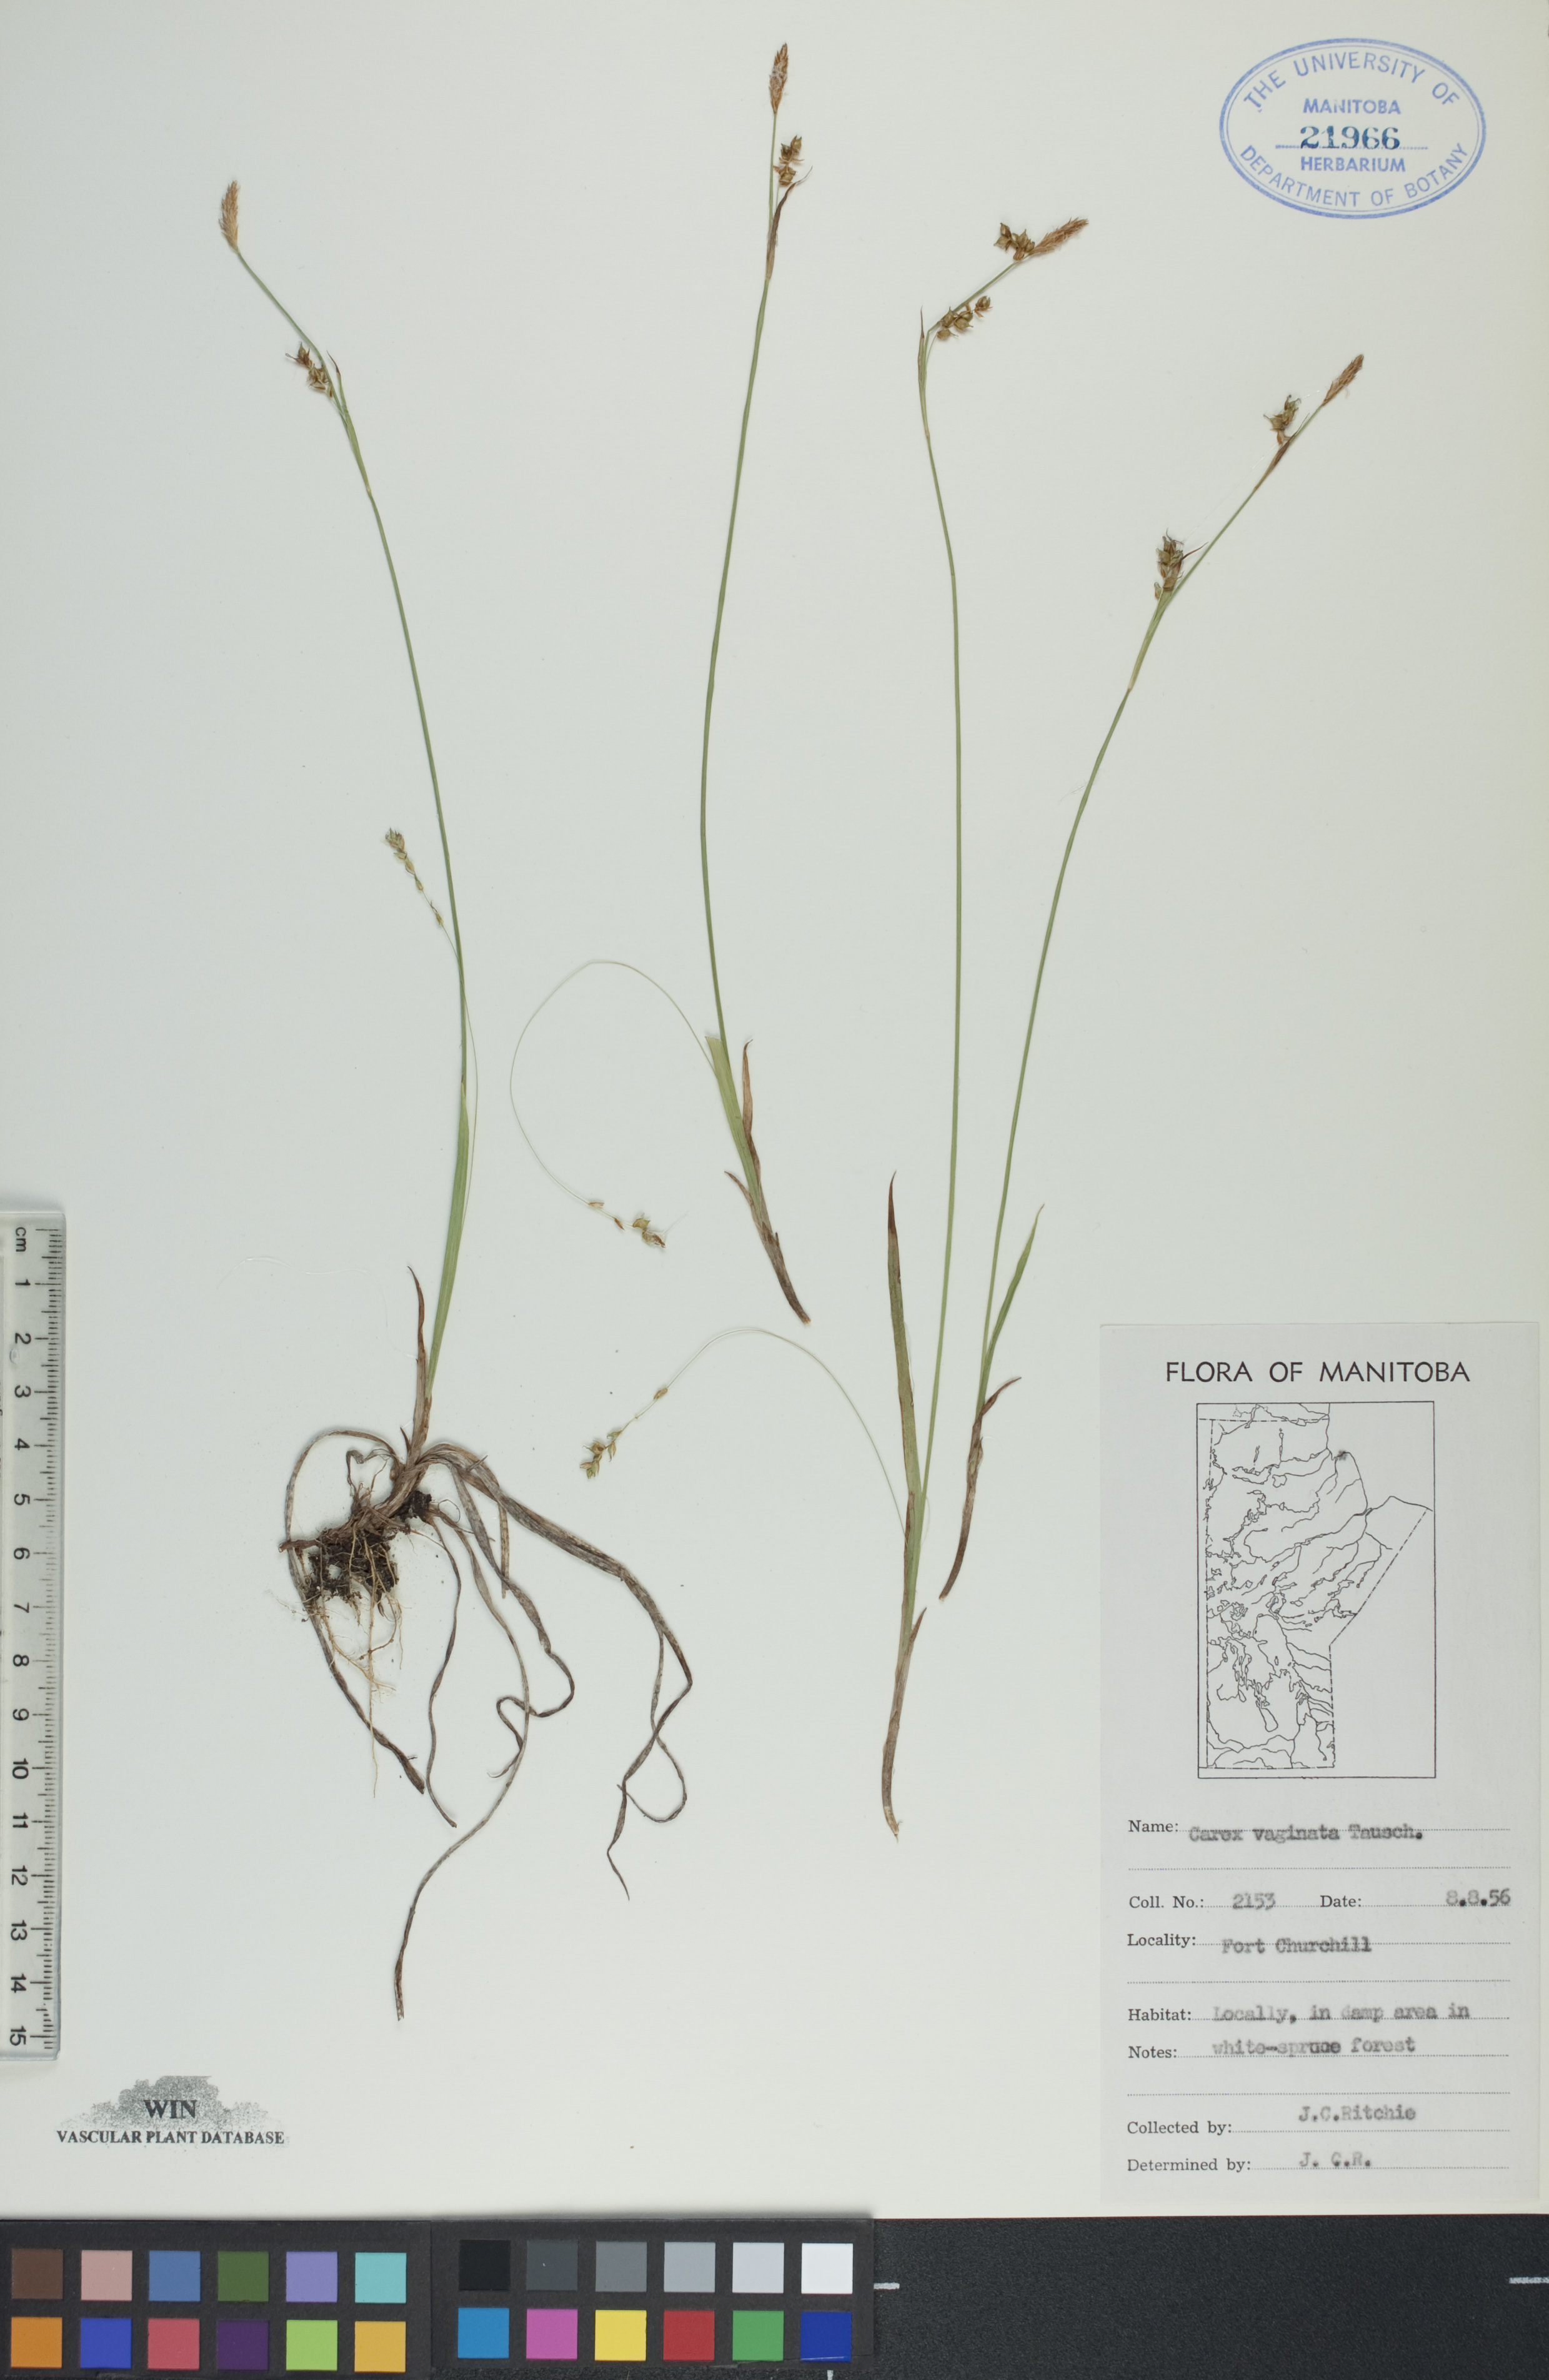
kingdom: Plantae
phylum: Tracheophyta
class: Liliopsida
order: Poales
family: Cyperaceae
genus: Carex
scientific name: Carex vaginata
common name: Sheathed sedge
